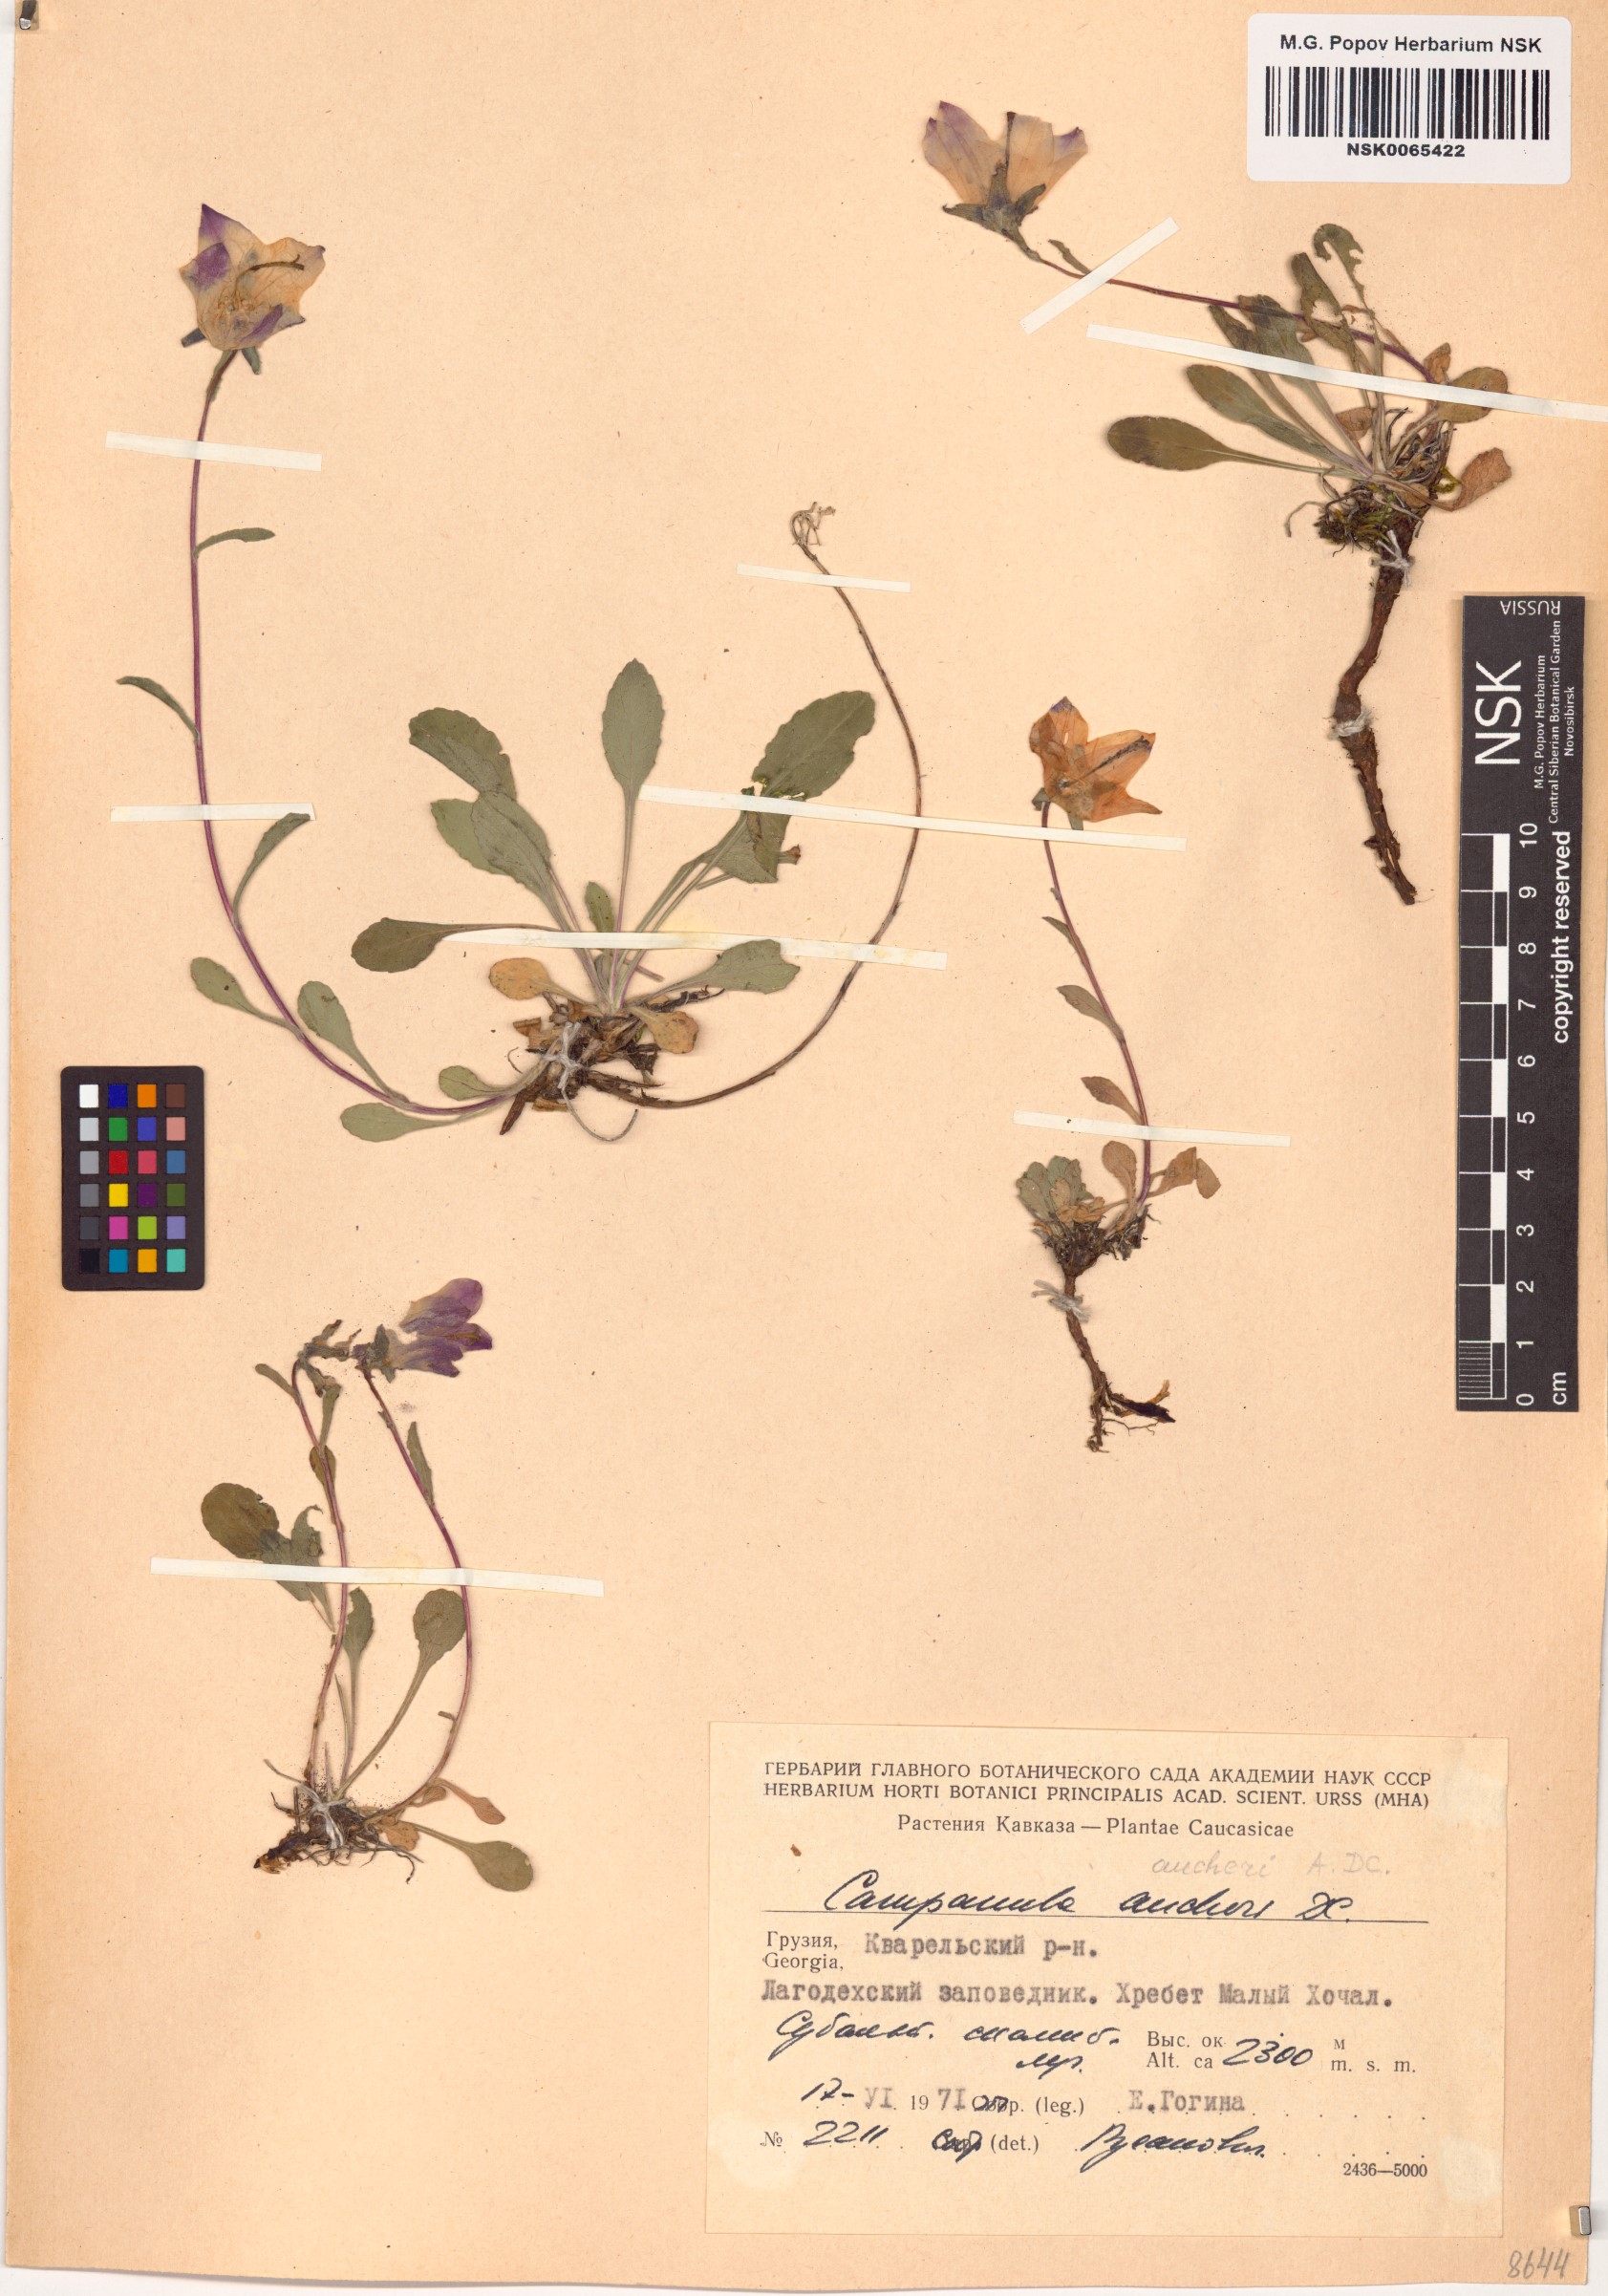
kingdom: Plantae
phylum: Tracheophyta
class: Magnoliopsida
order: Asterales
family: Campanulaceae
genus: Campanula
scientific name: Campanula saxifraga
